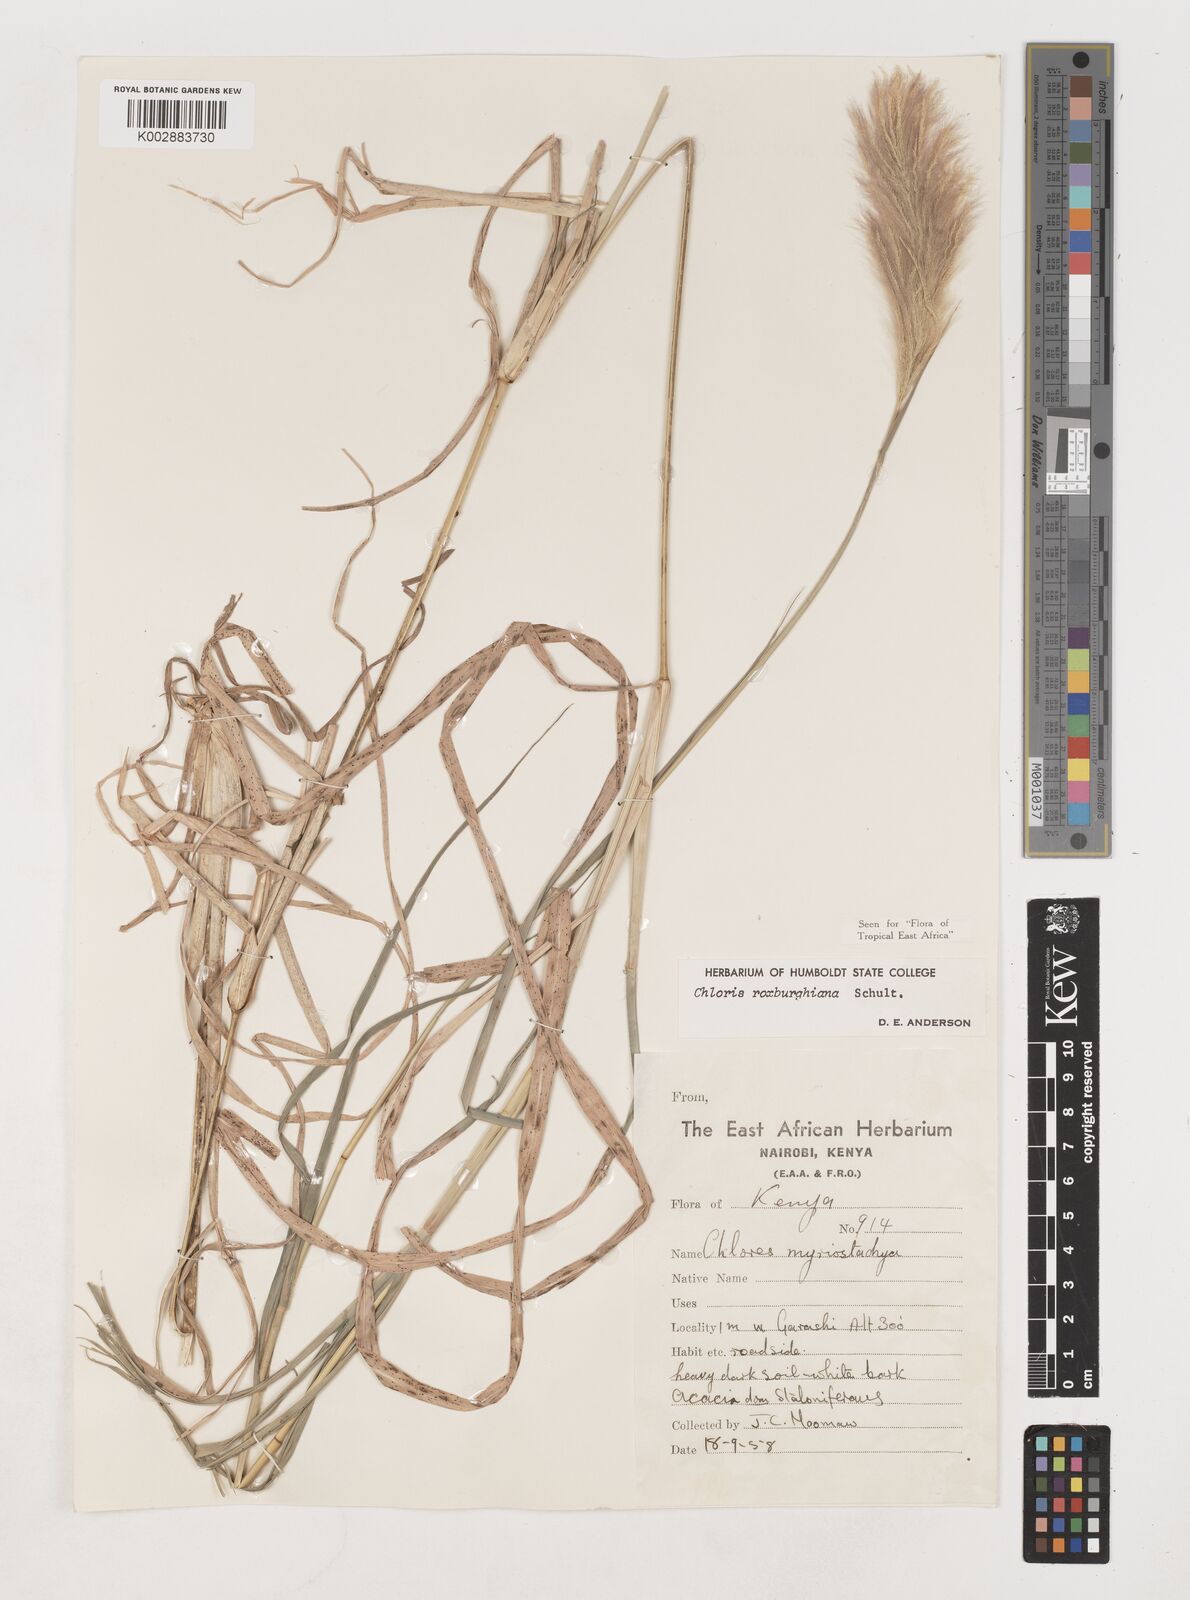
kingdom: Plantae
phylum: Tracheophyta
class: Liliopsida
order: Poales
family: Poaceae
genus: Tetrapogon
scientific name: Tetrapogon roxburghiana
